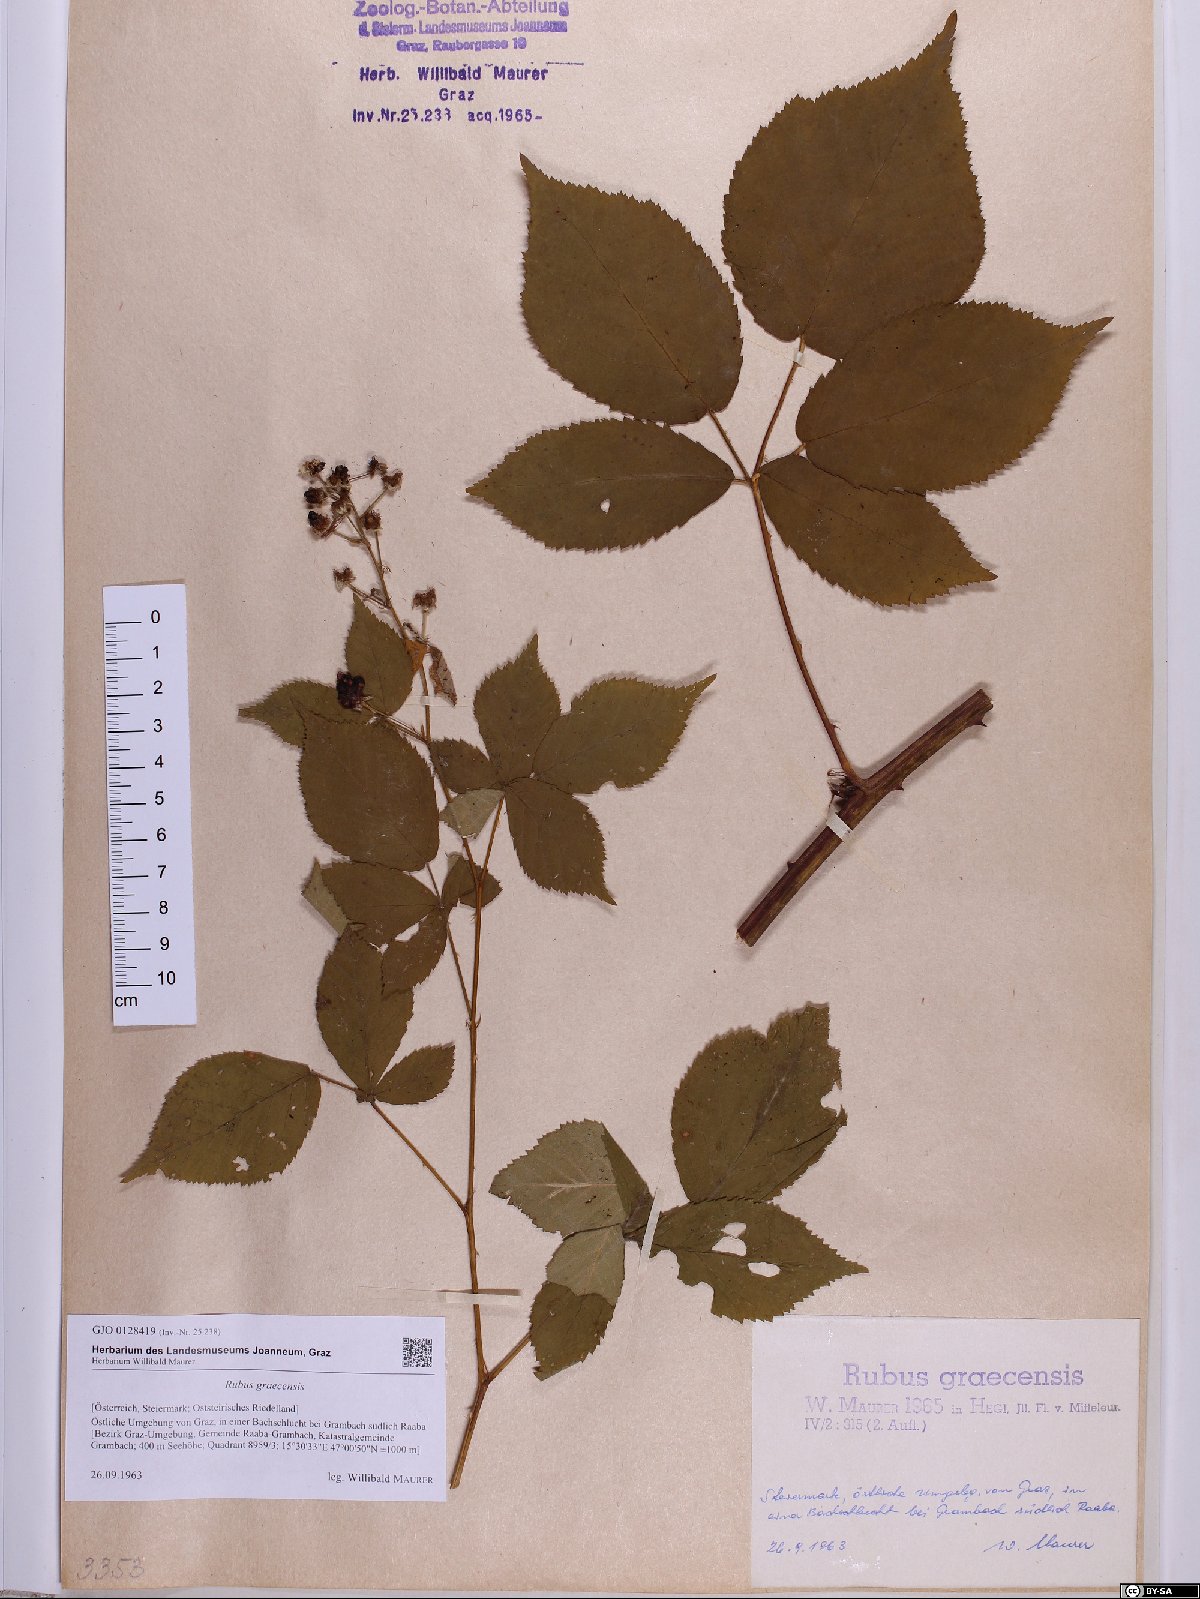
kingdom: Plantae
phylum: Tracheophyta
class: Magnoliopsida
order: Rosales
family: Rosaceae
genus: Rubus
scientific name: Rubus graecensis
